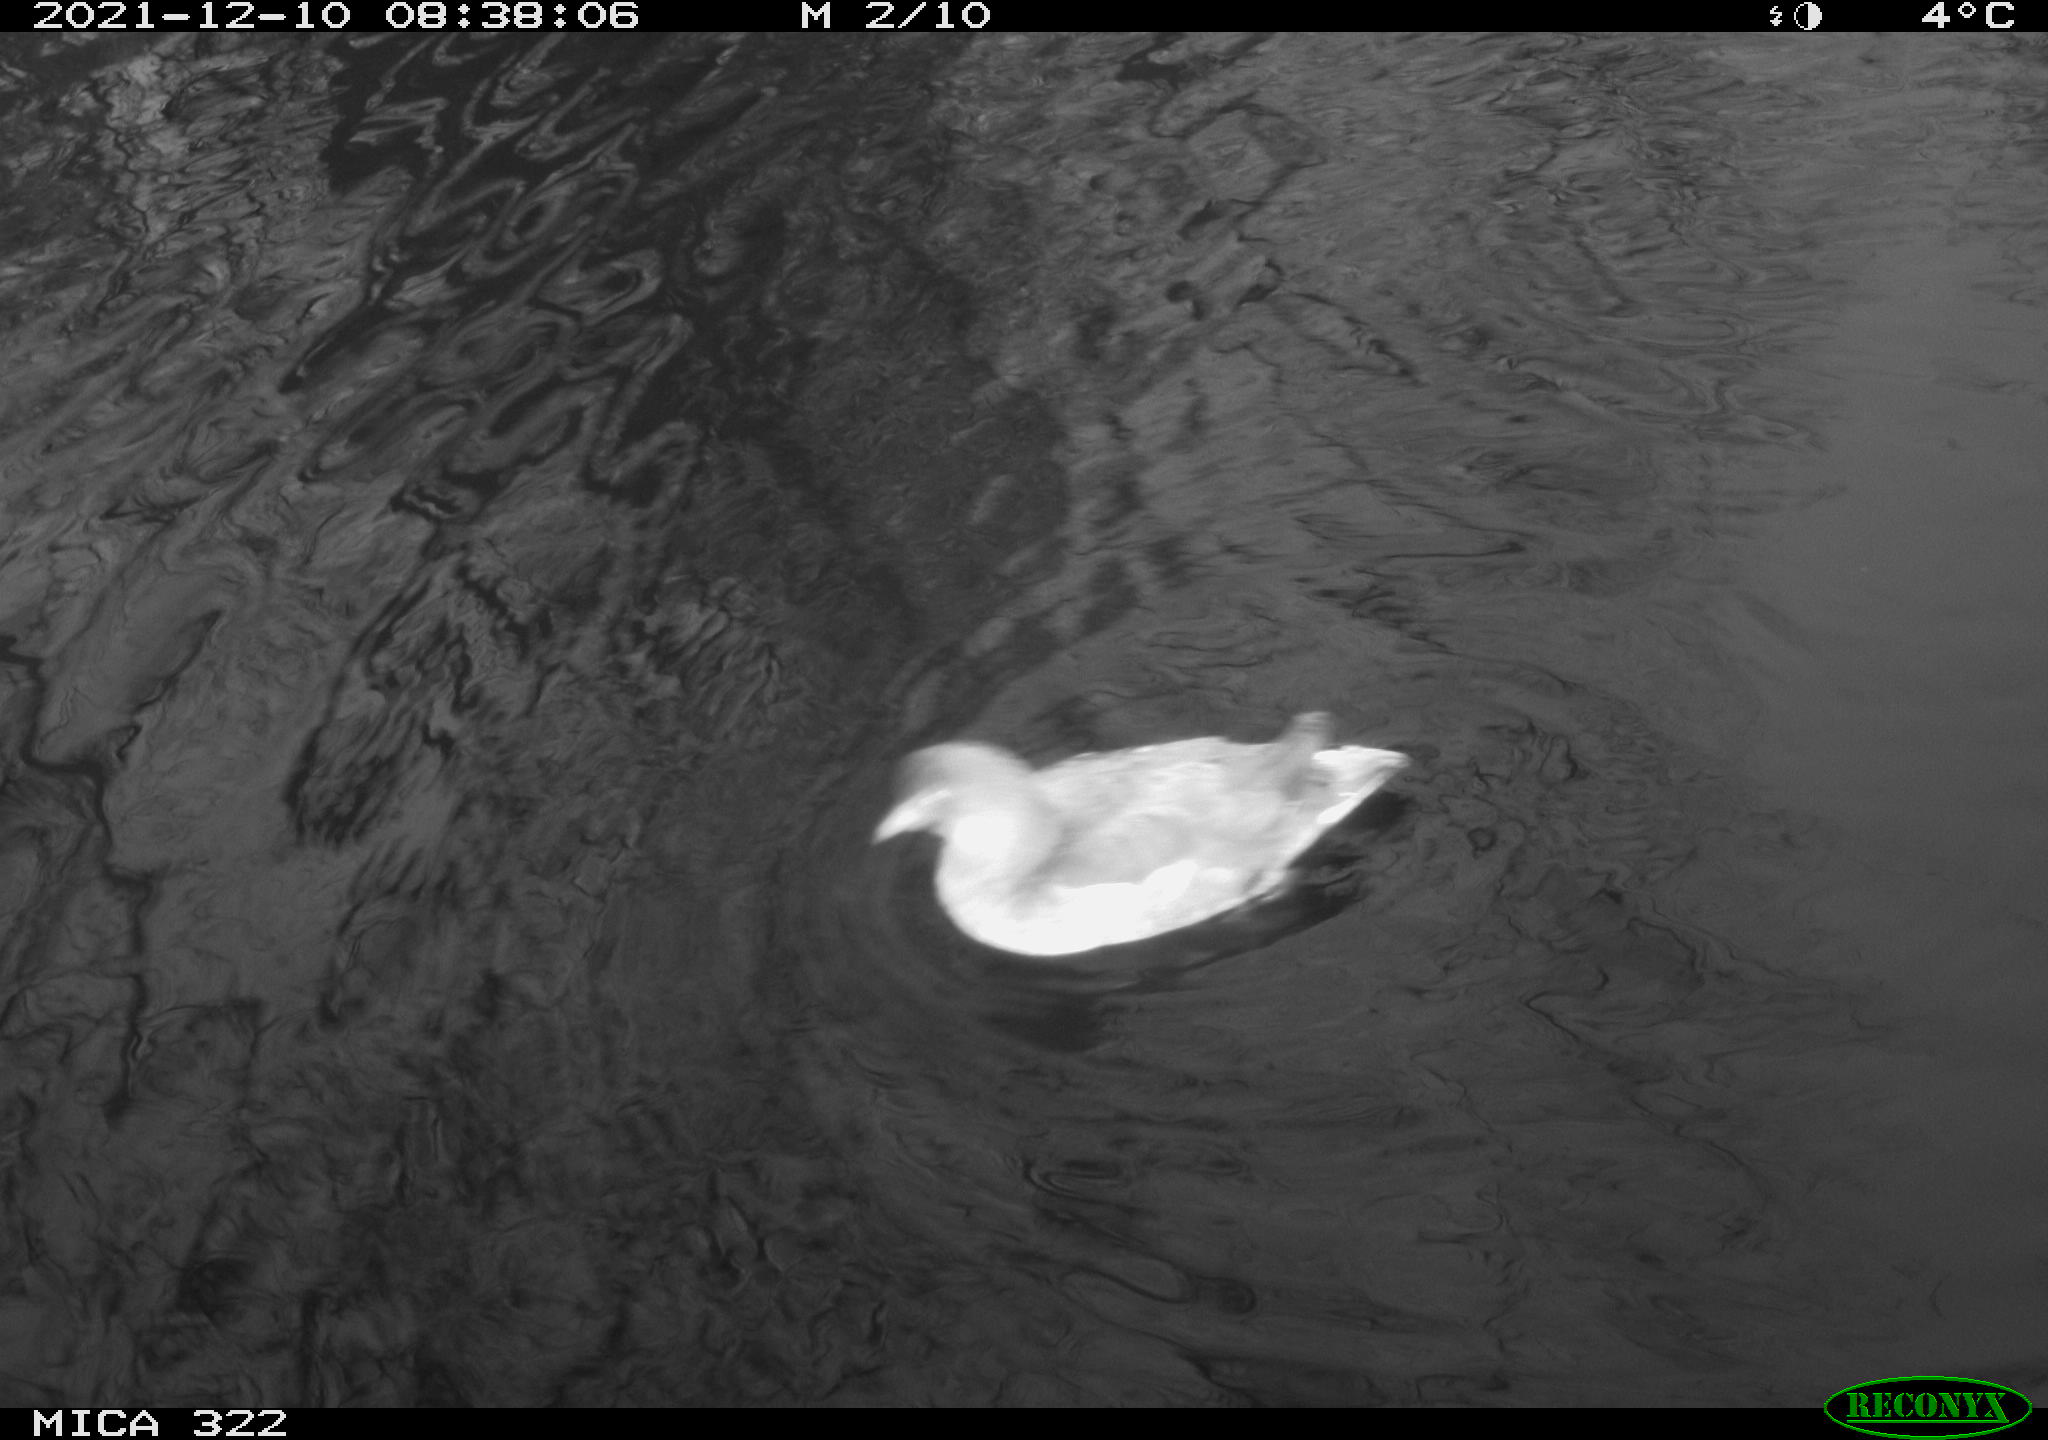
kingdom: Animalia
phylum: Chordata
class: Aves
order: Anseriformes
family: Anatidae
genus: Anas
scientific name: Anas
